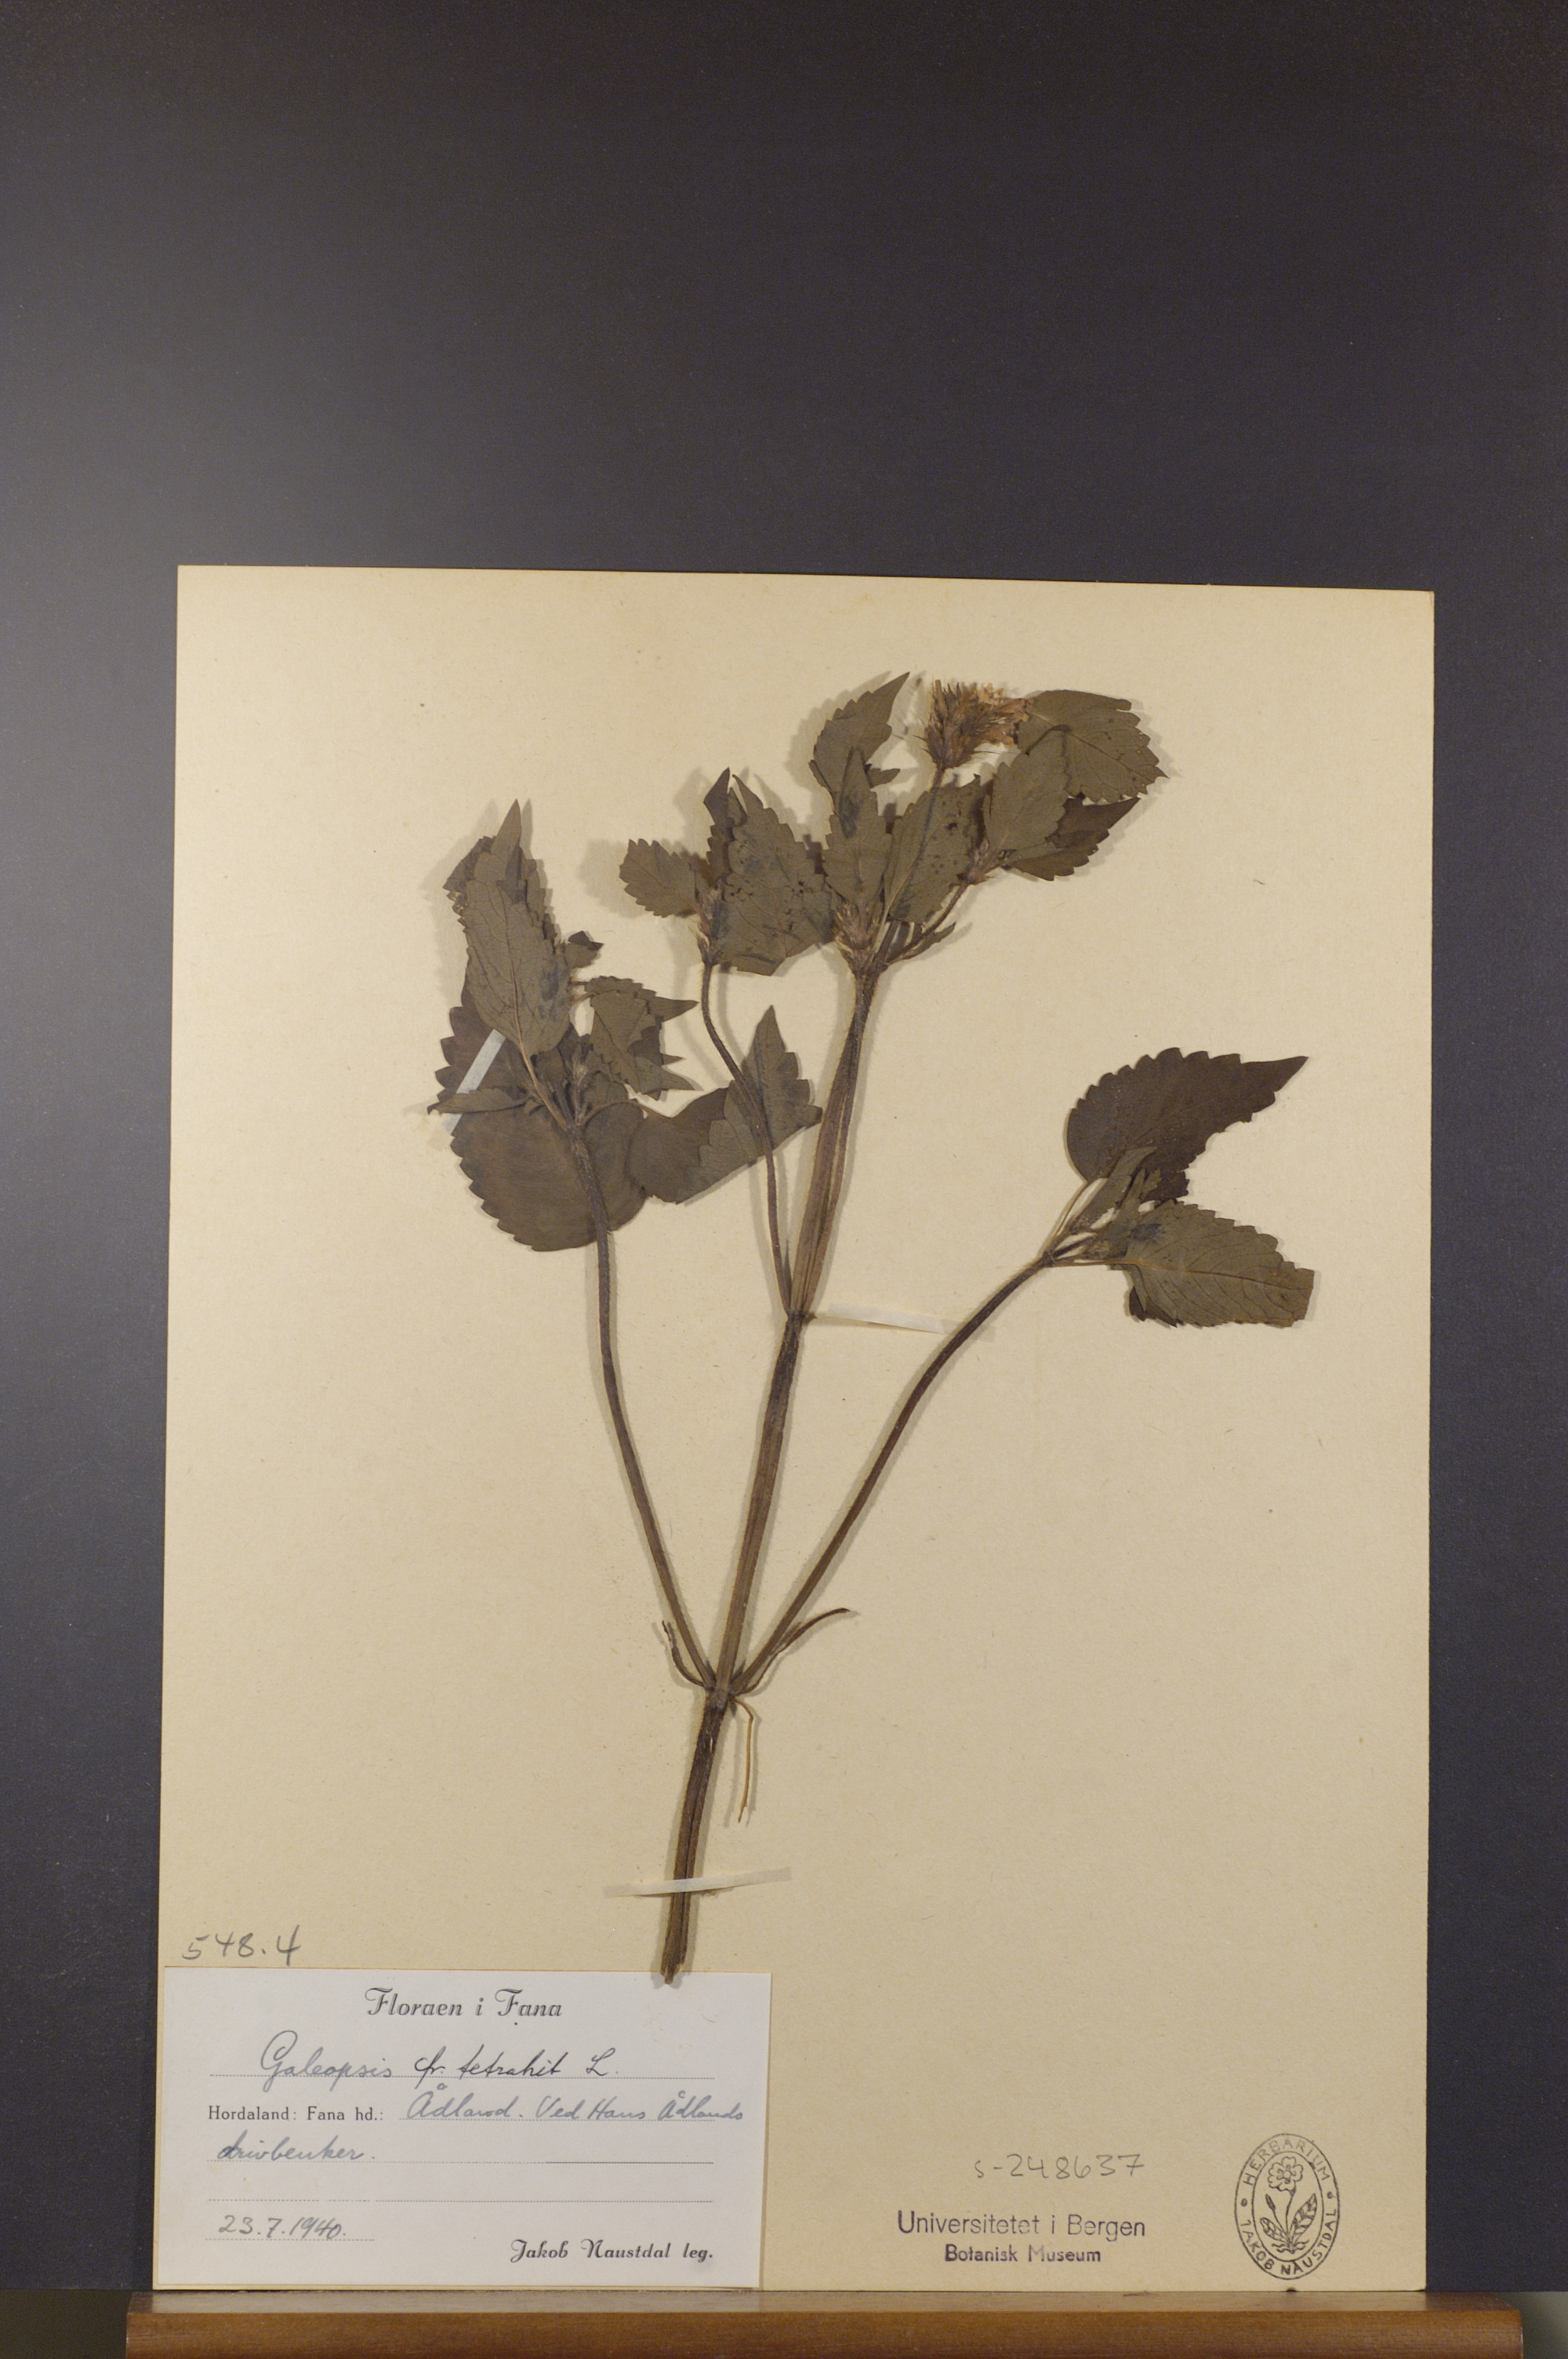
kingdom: Plantae
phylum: Tracheophyta
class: Magnoliopsida
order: Lamiales
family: Lamiaceae
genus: Galeopsis
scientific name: Galeopsis tetrahit
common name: Common hemp-nettle
